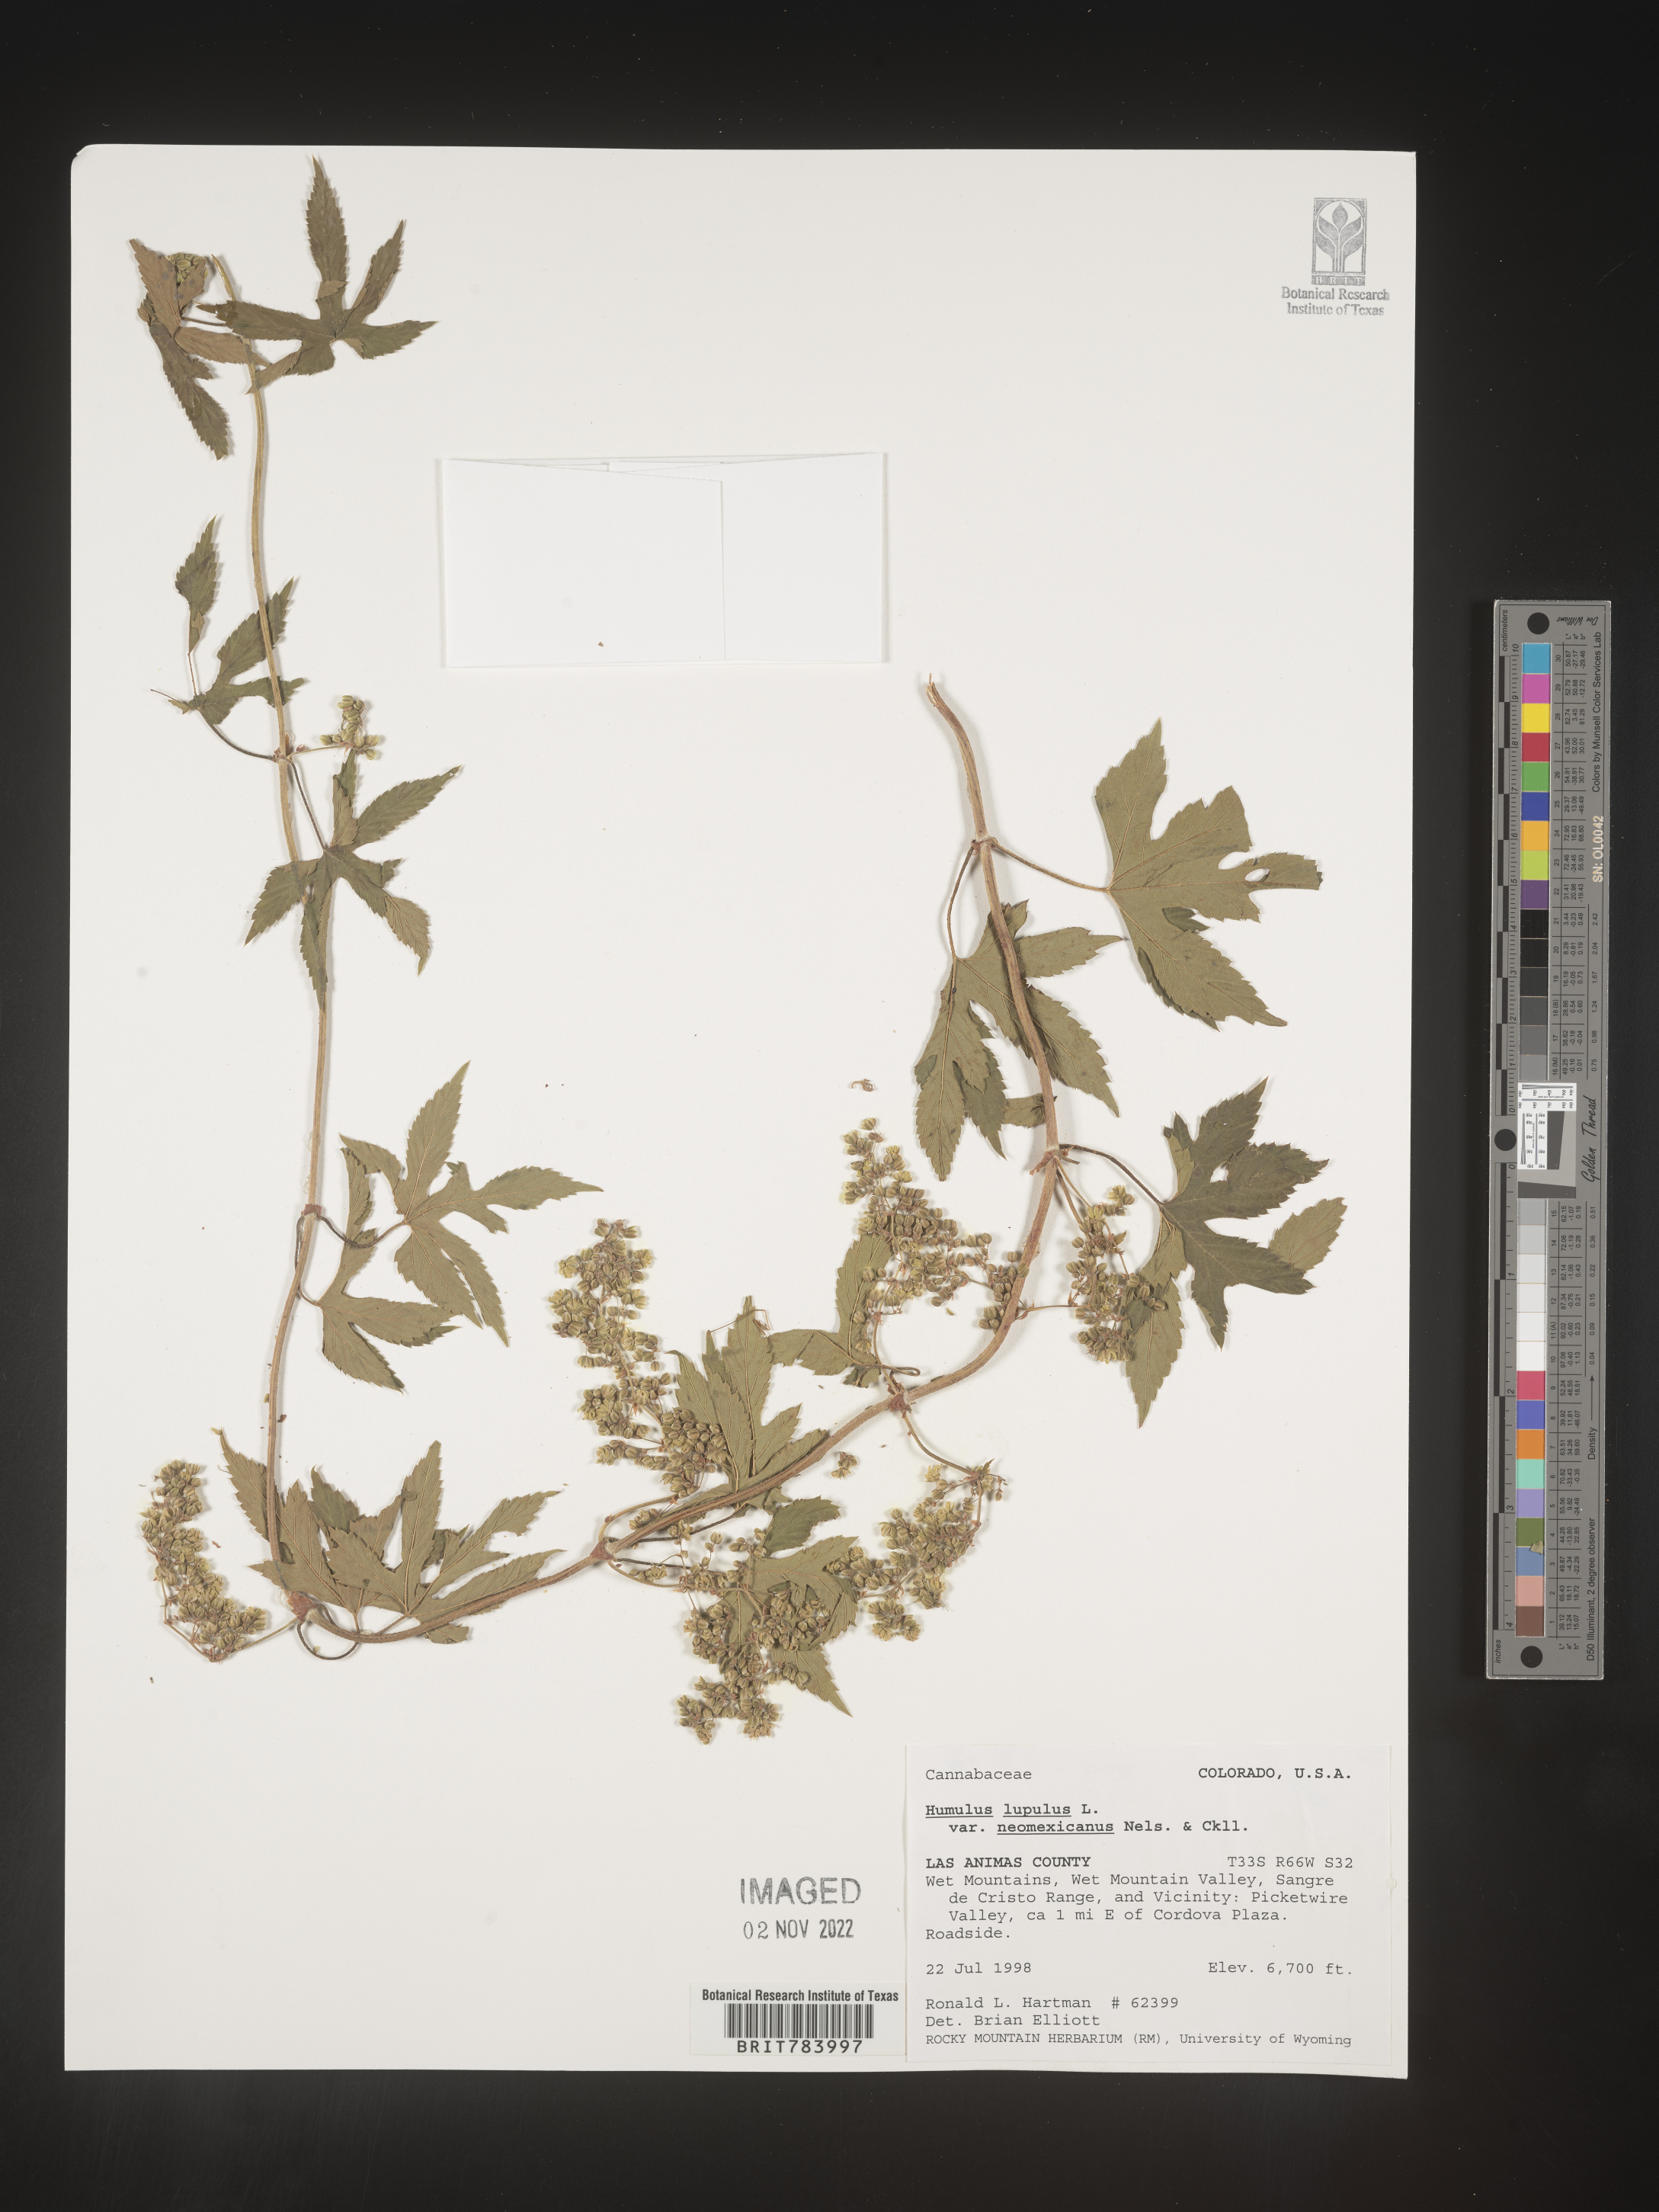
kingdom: Plantae
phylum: Tracheophyta
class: Magnoliopsida
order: Rosales
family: Cannabaceae
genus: Humulus
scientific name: Humulus neomexicanus
